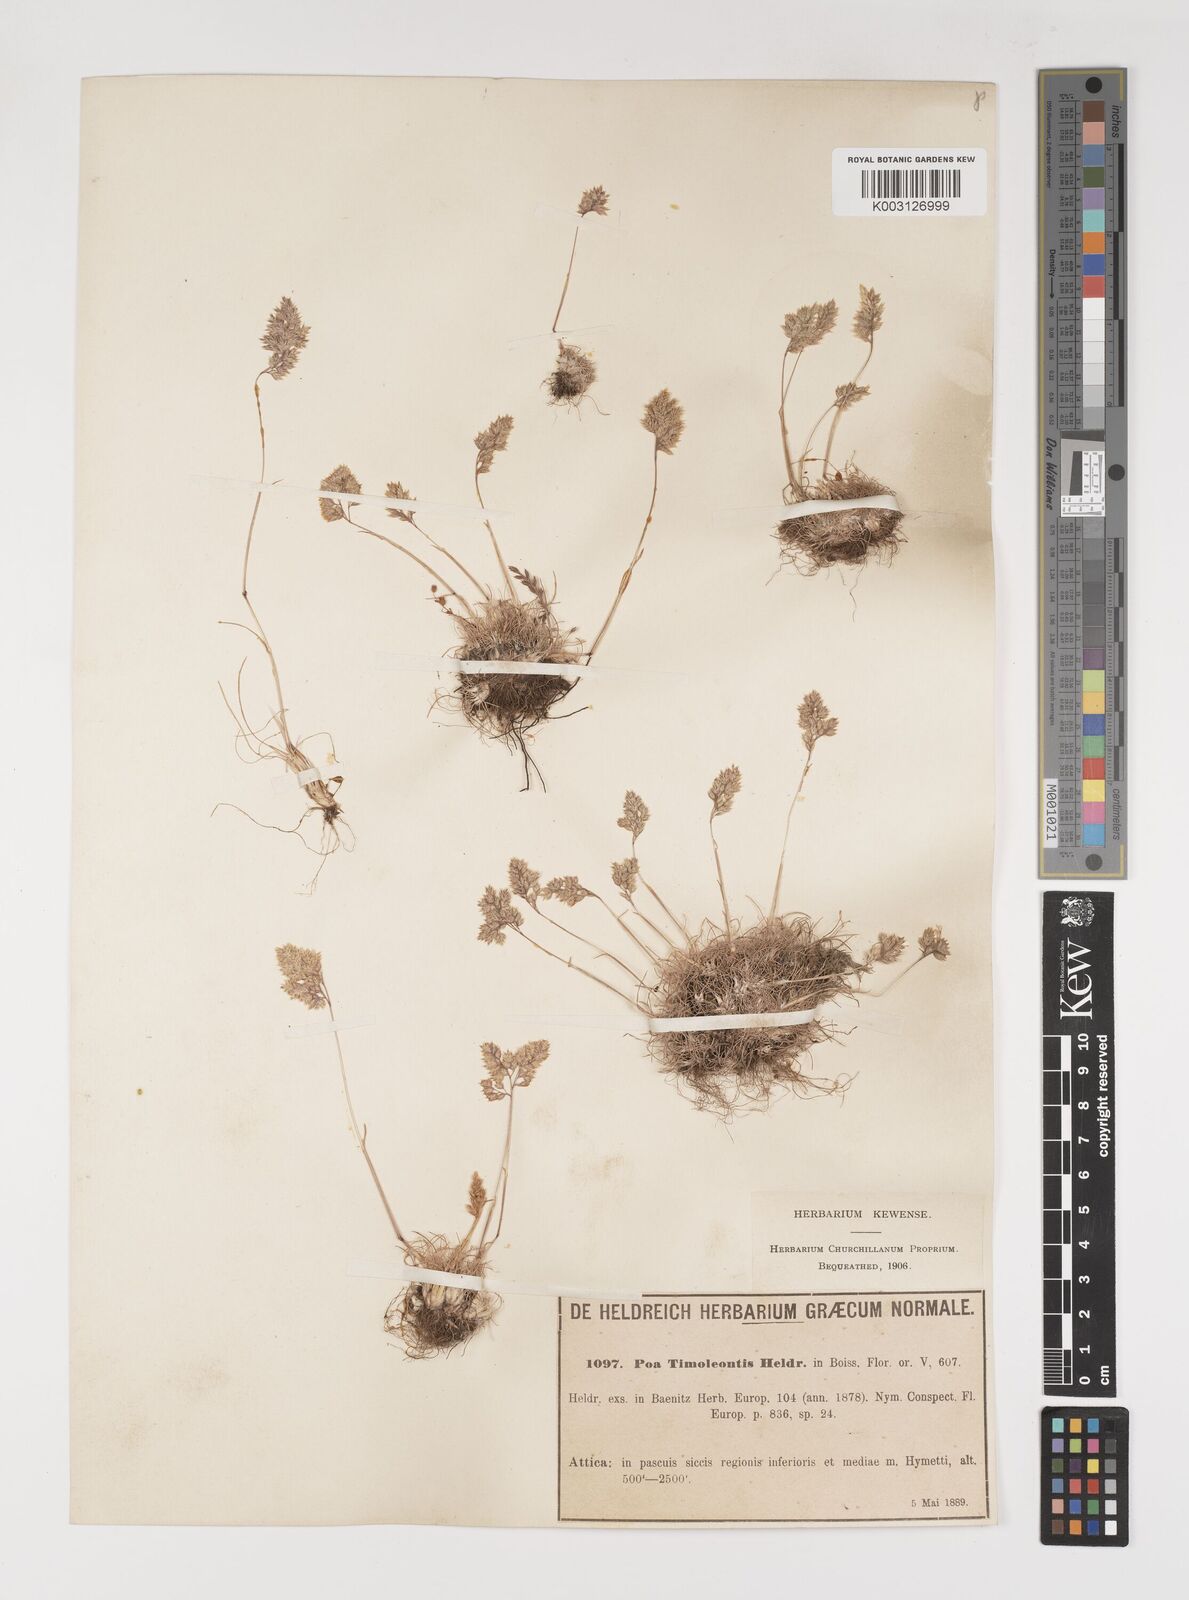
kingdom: Plantae
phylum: Tracheophyta
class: Liliopsida
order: Poales
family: Poaceae
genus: Poa
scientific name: Poa timoleontis
